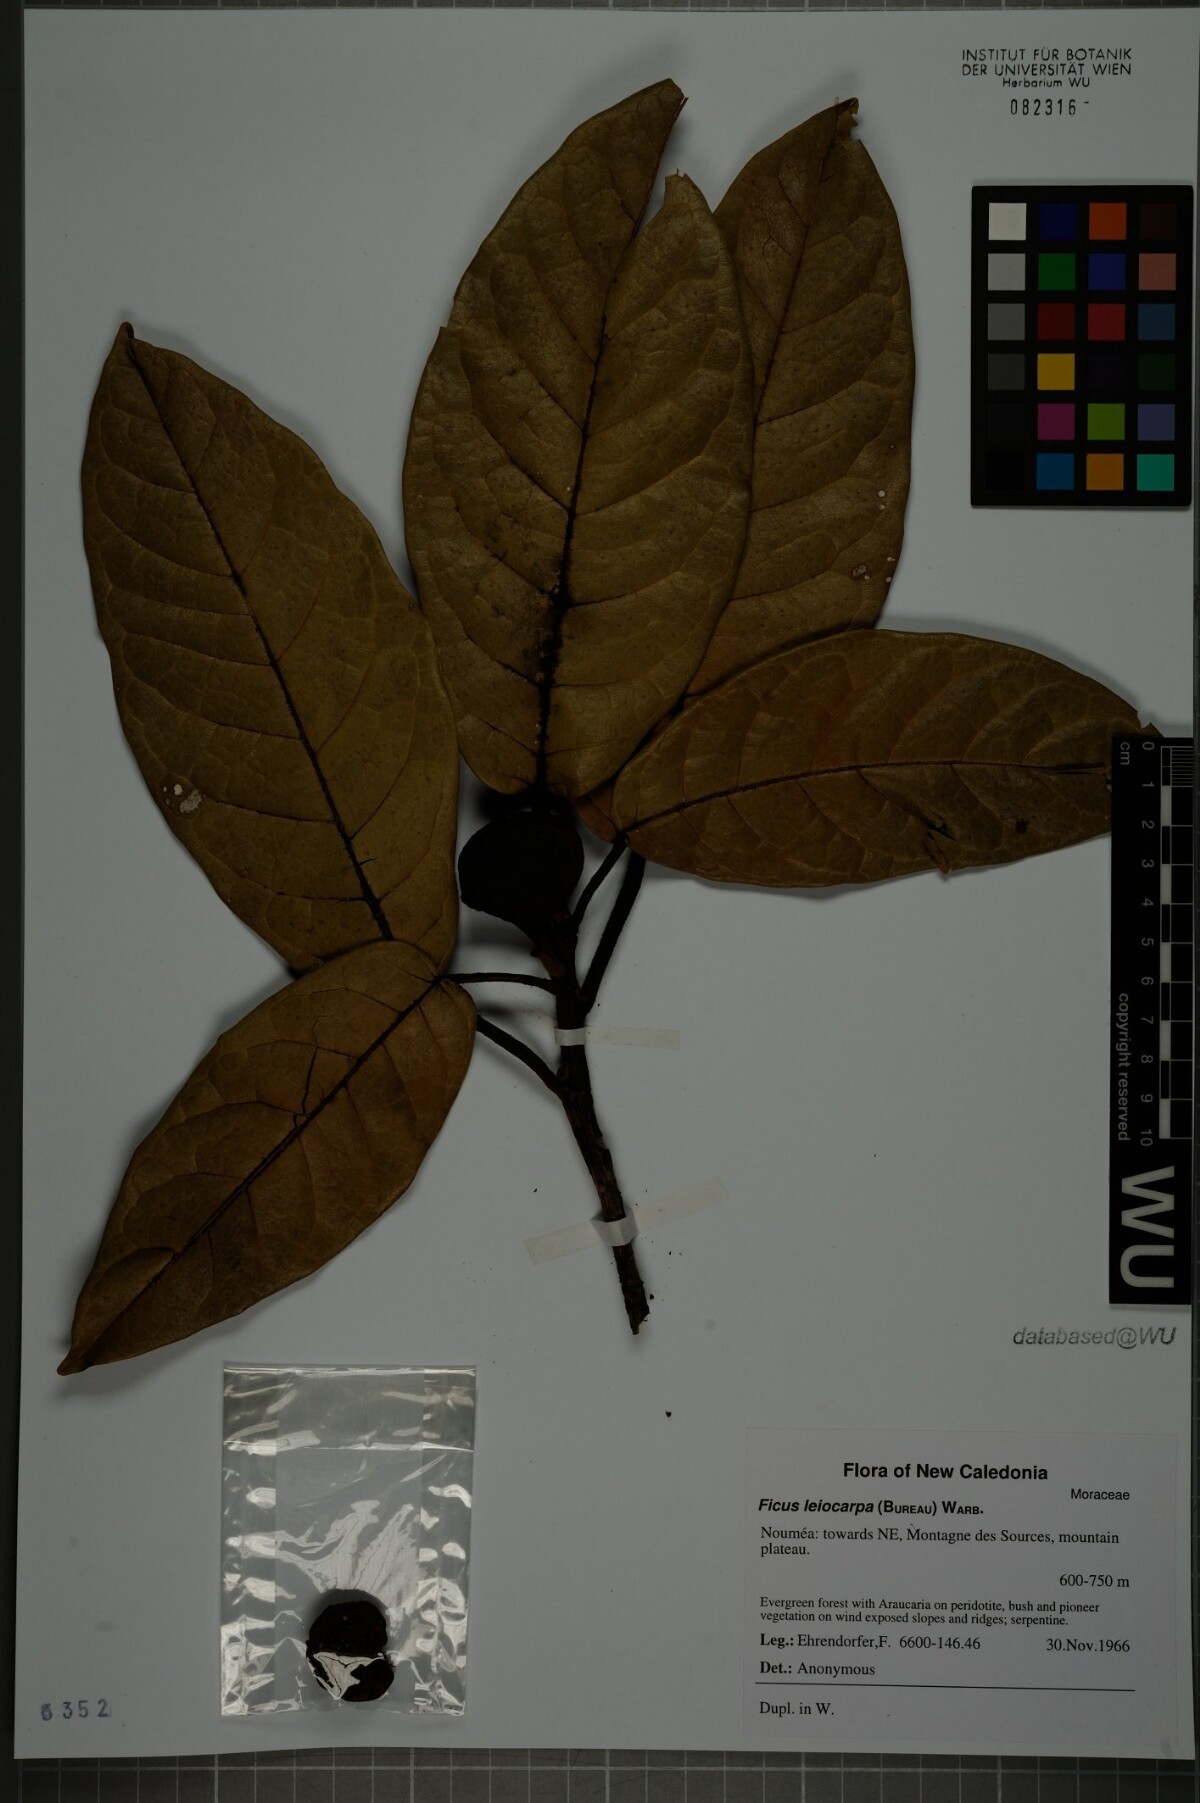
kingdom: Plantae
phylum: Tracheophyta
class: Magnoliopsida
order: Rosales
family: Moraceae
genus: Ficus
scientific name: Ficus leiocarpa
